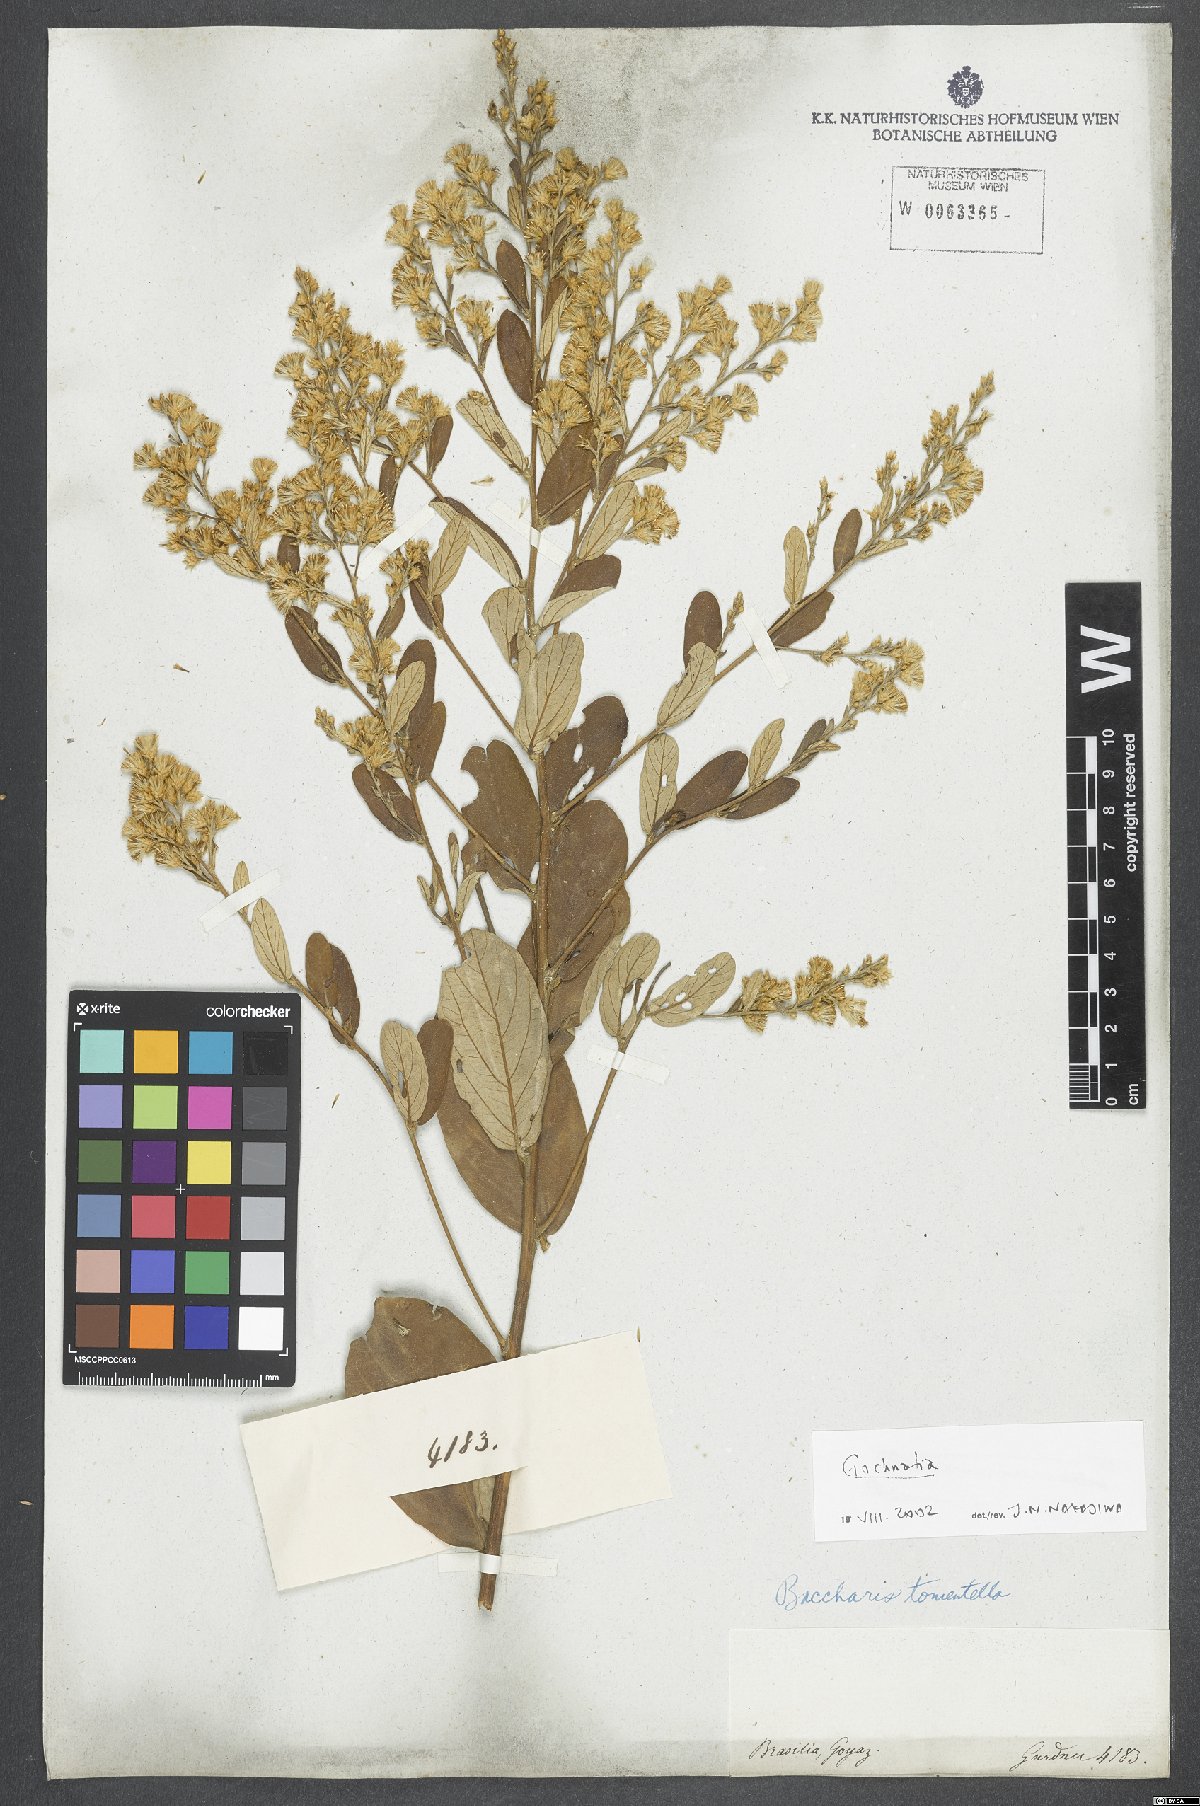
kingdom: Plantae
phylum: Tracheophyta
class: Magnoliopsida
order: Asterales
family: Asteraceae
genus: Gochnatia
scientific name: Gochnatia
